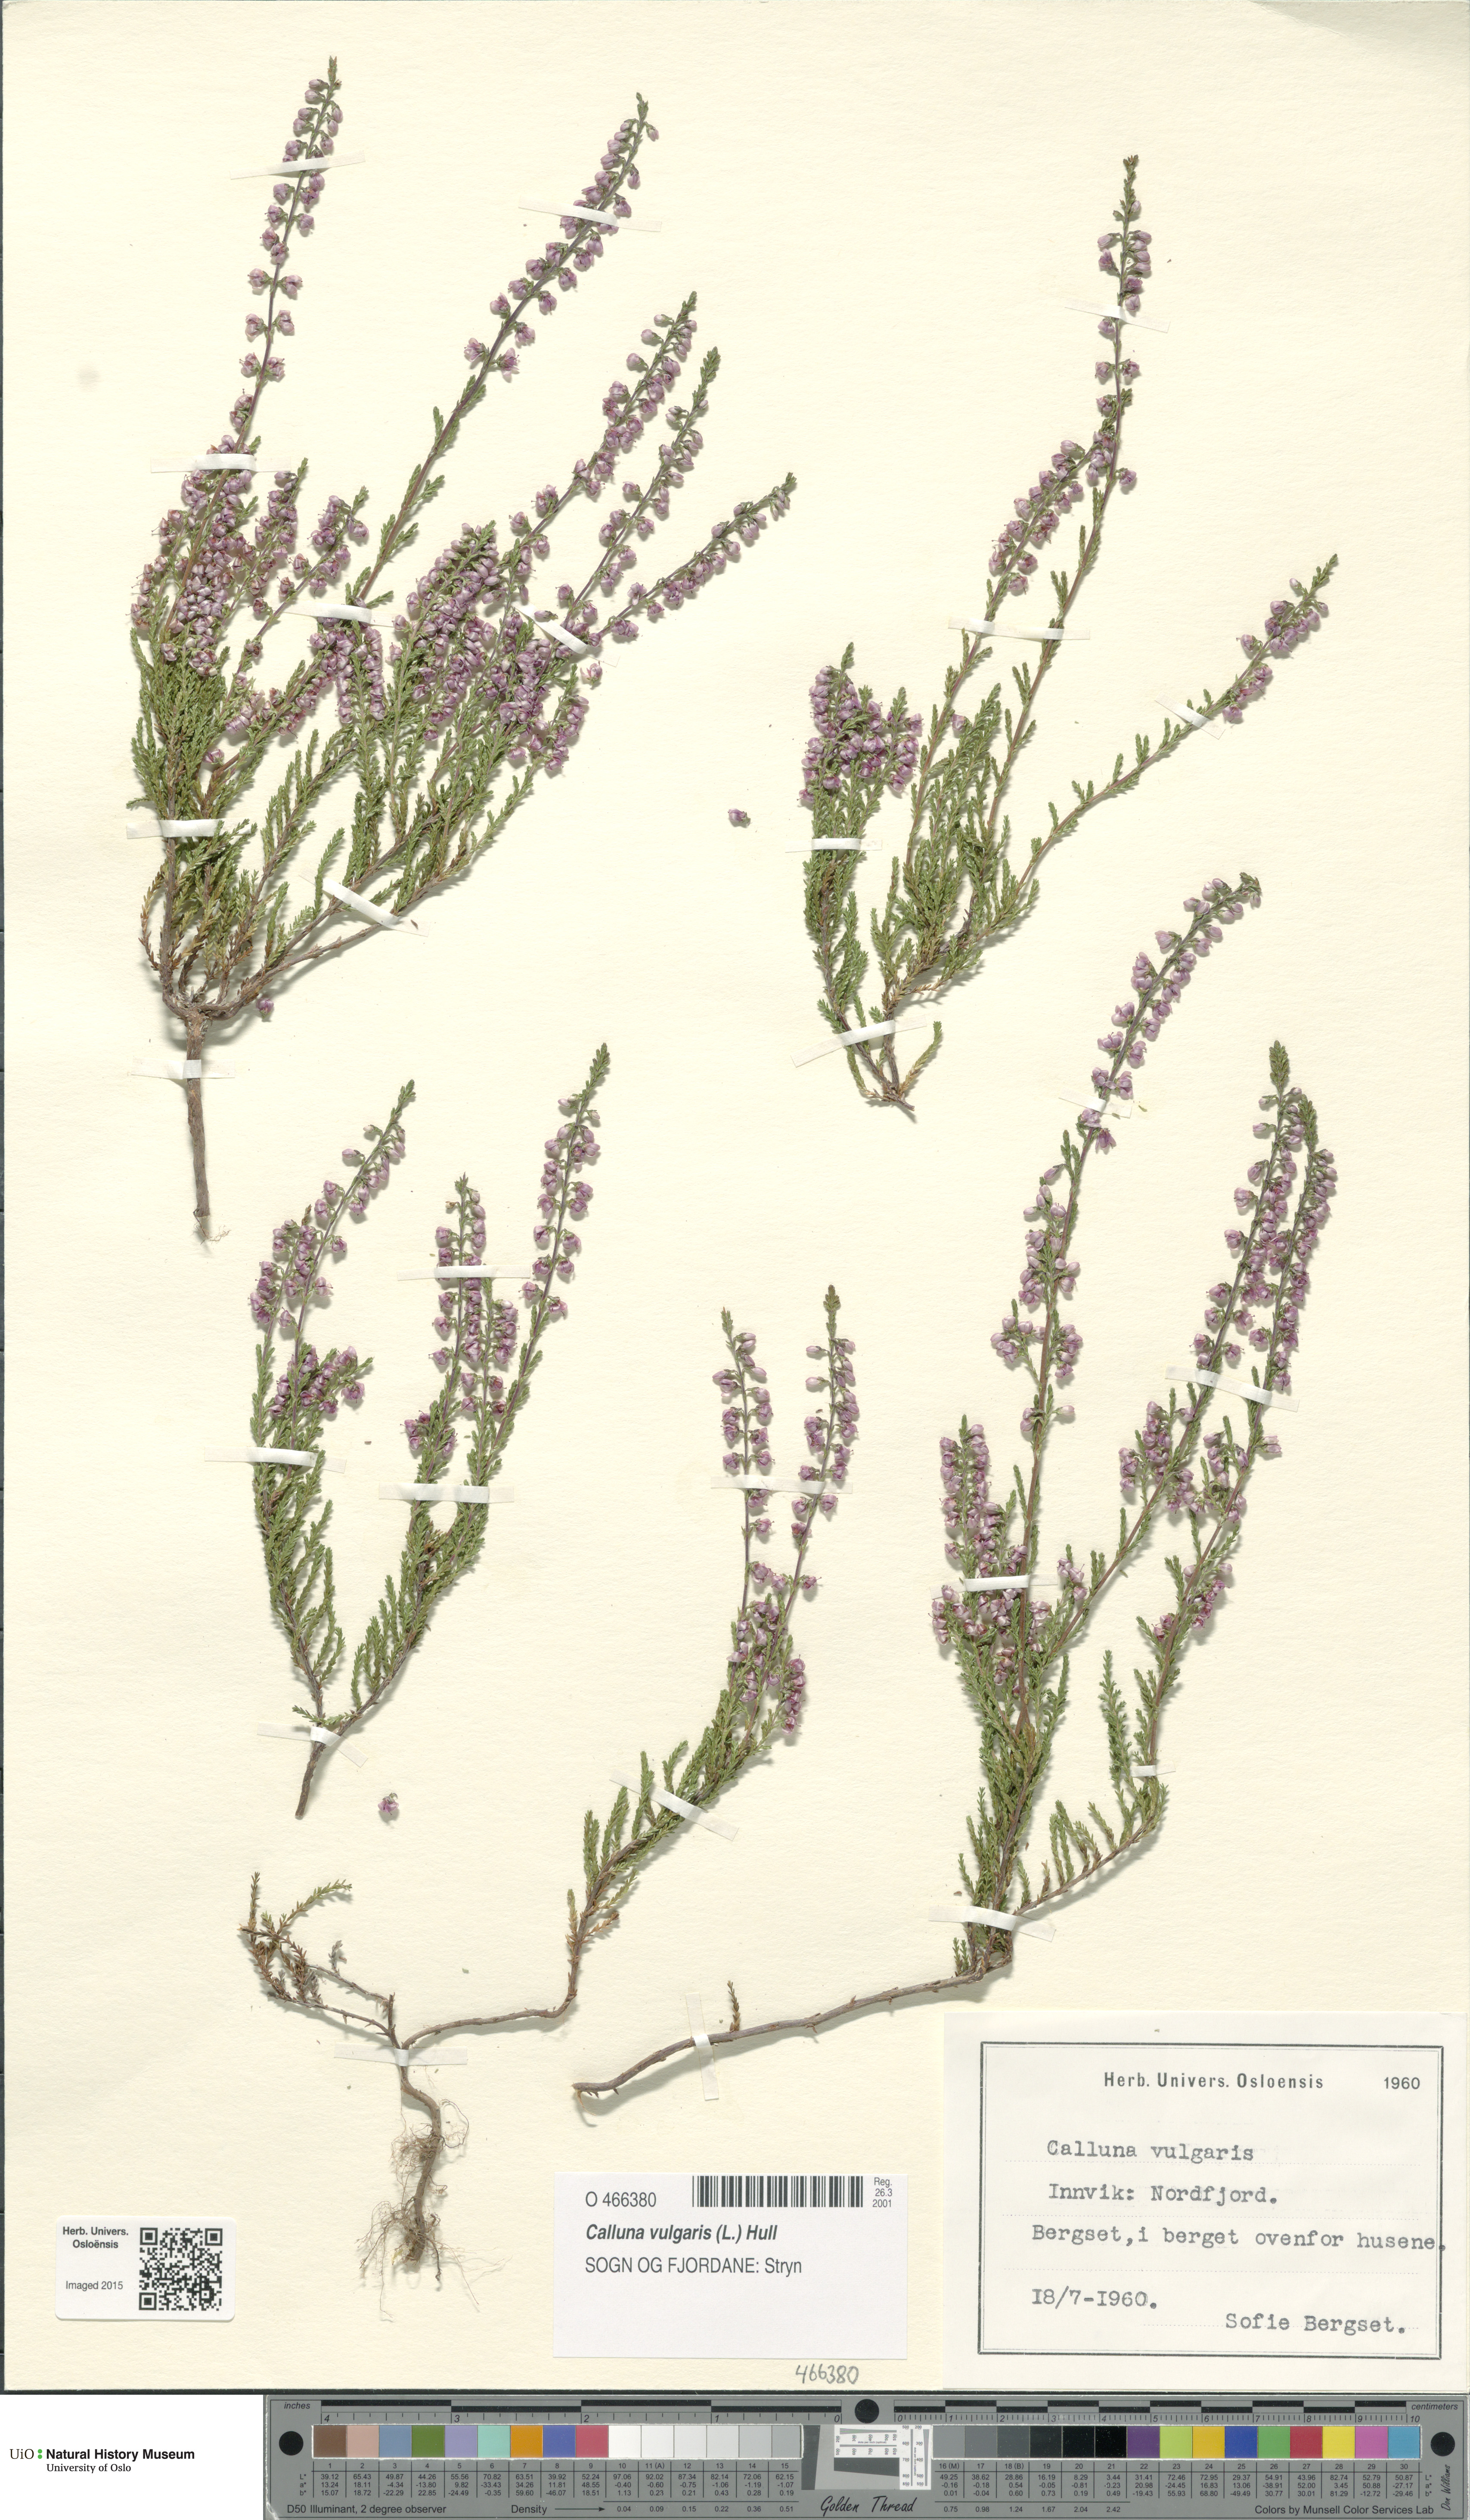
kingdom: Plantae
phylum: Tracheophyta
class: Magnoliopsida
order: Ericales
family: Ericaceae
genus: Calluna
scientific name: Calluna vulgaris
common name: Heather
